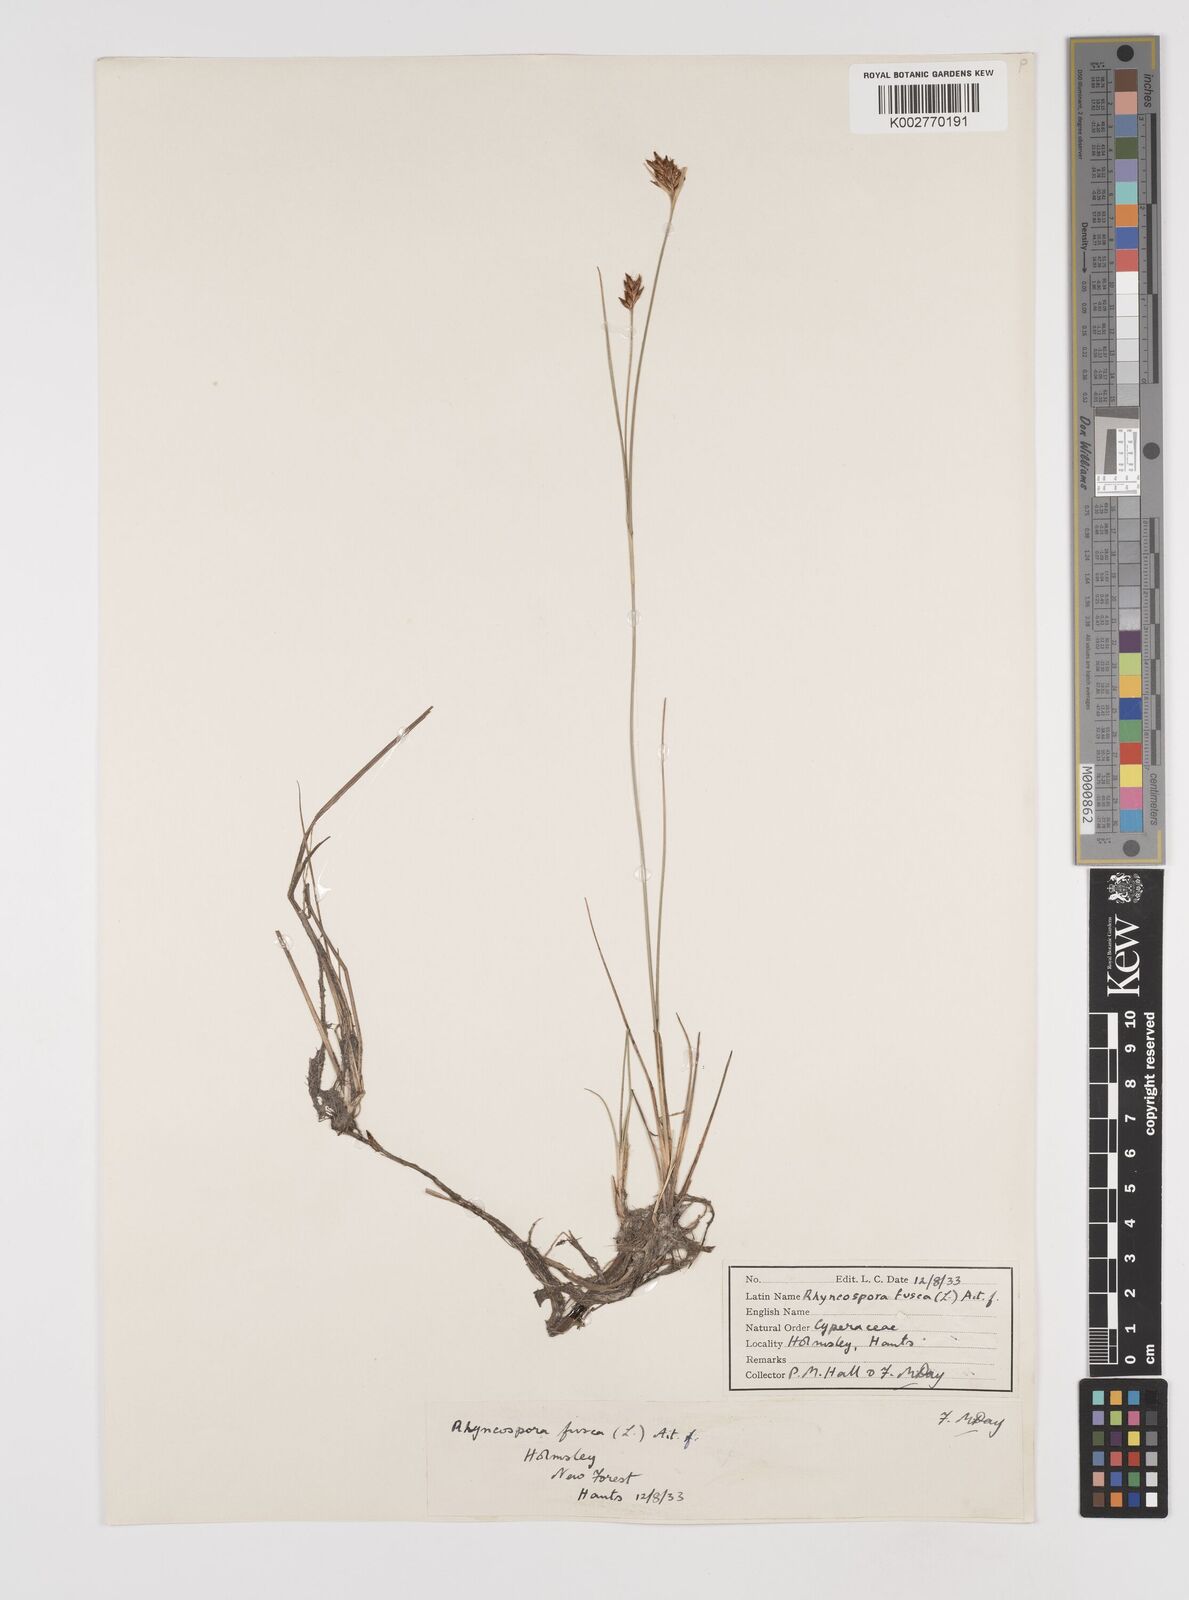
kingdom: Plantae
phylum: Tracheophyta
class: Liliopsida
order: Poales
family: Cyperaceae
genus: Rhynchospora
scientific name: Rhynchospora fusca
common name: Brown beak-sedge
